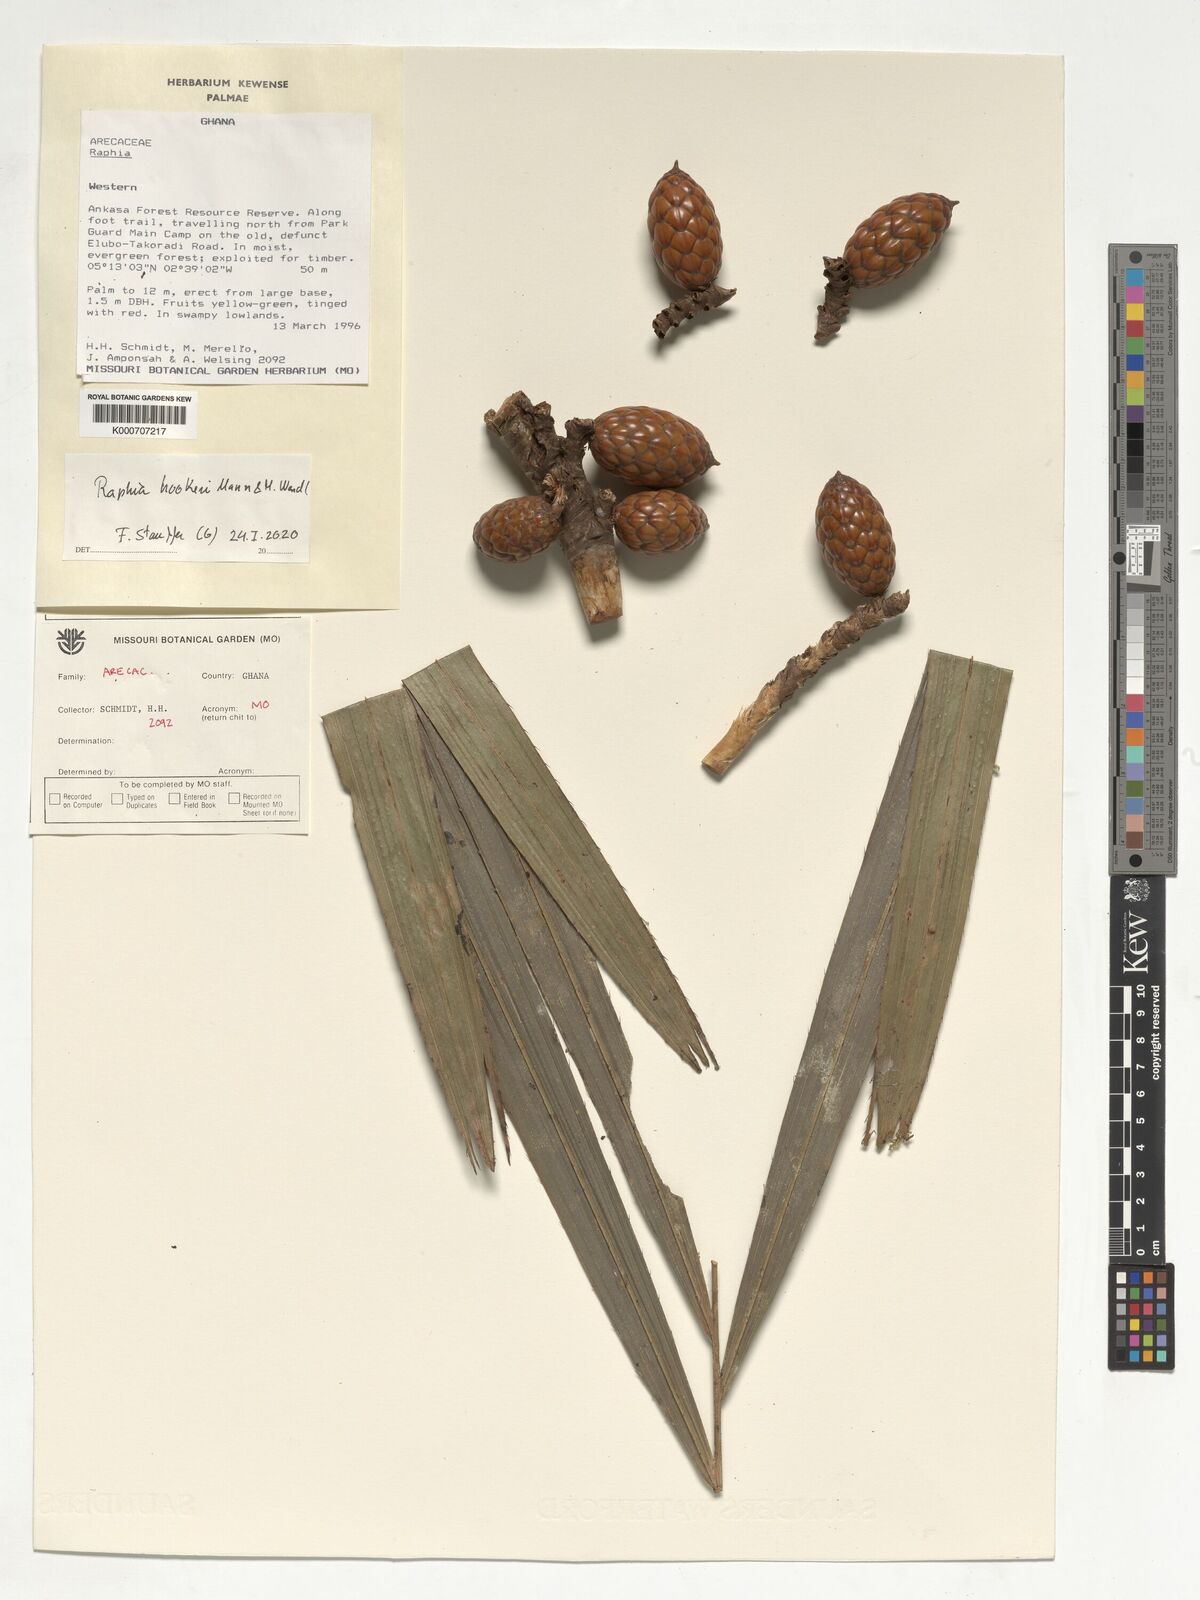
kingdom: Plantae
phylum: Tracheophyta
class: Liliopsida
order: Arecales
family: Arecaceae
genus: Raphia
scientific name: Raphia
